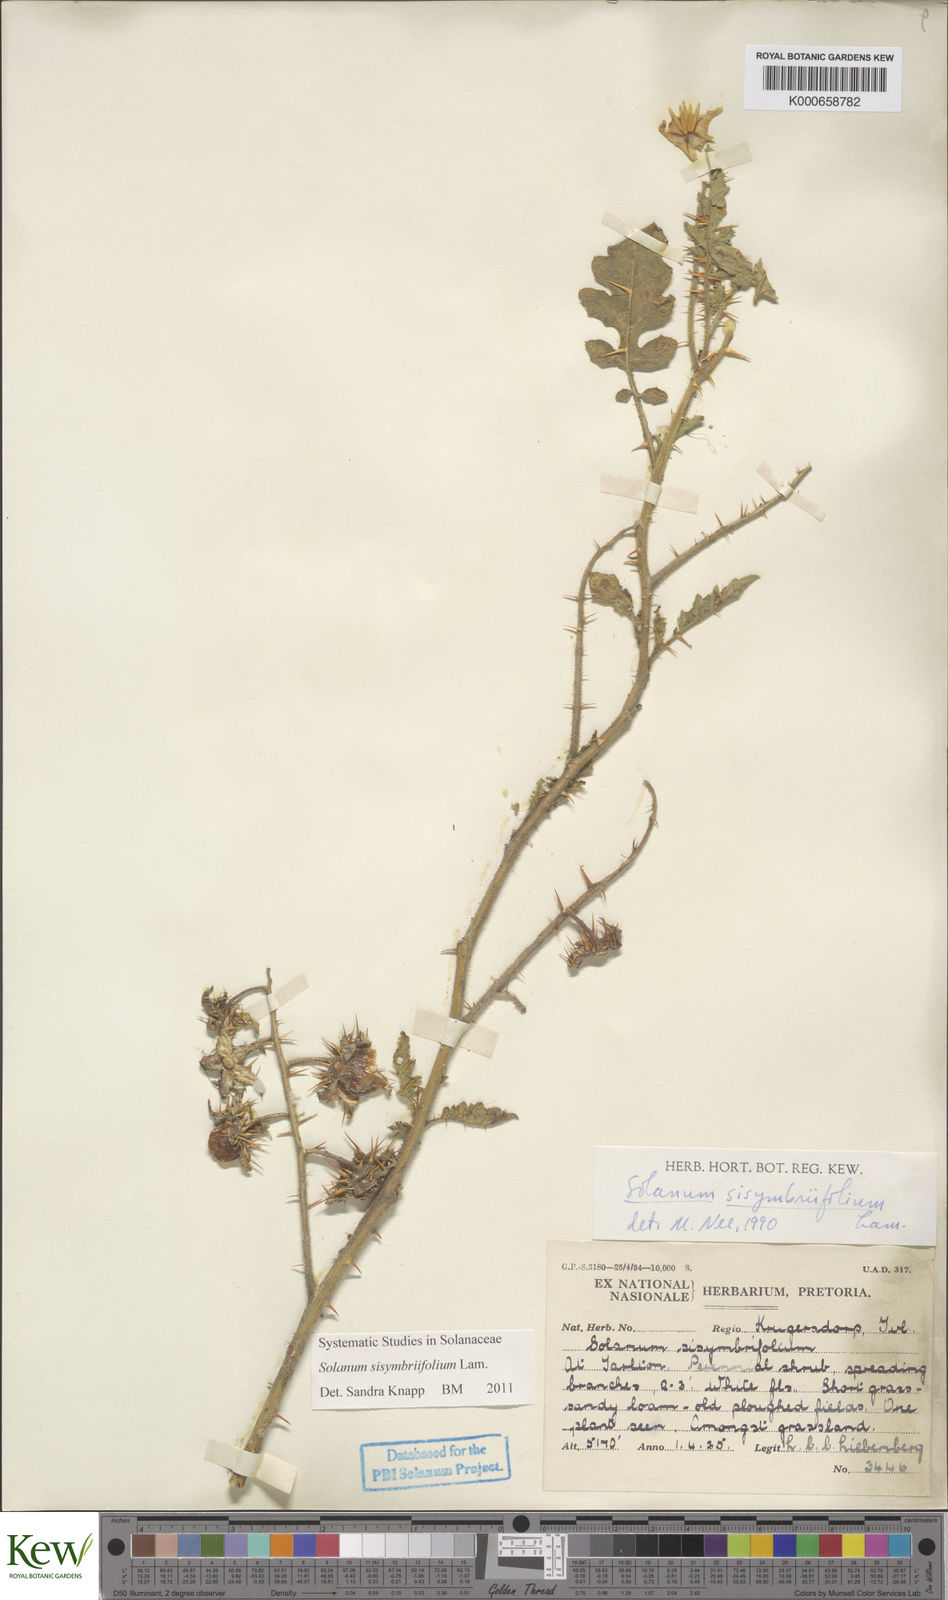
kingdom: Plantae
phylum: Tracheophyta
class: Magnoliopsida
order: Solanales
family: Solanaceae
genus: Solanum
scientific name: Solanum sisymbriifolium
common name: Red buffalo-bur
